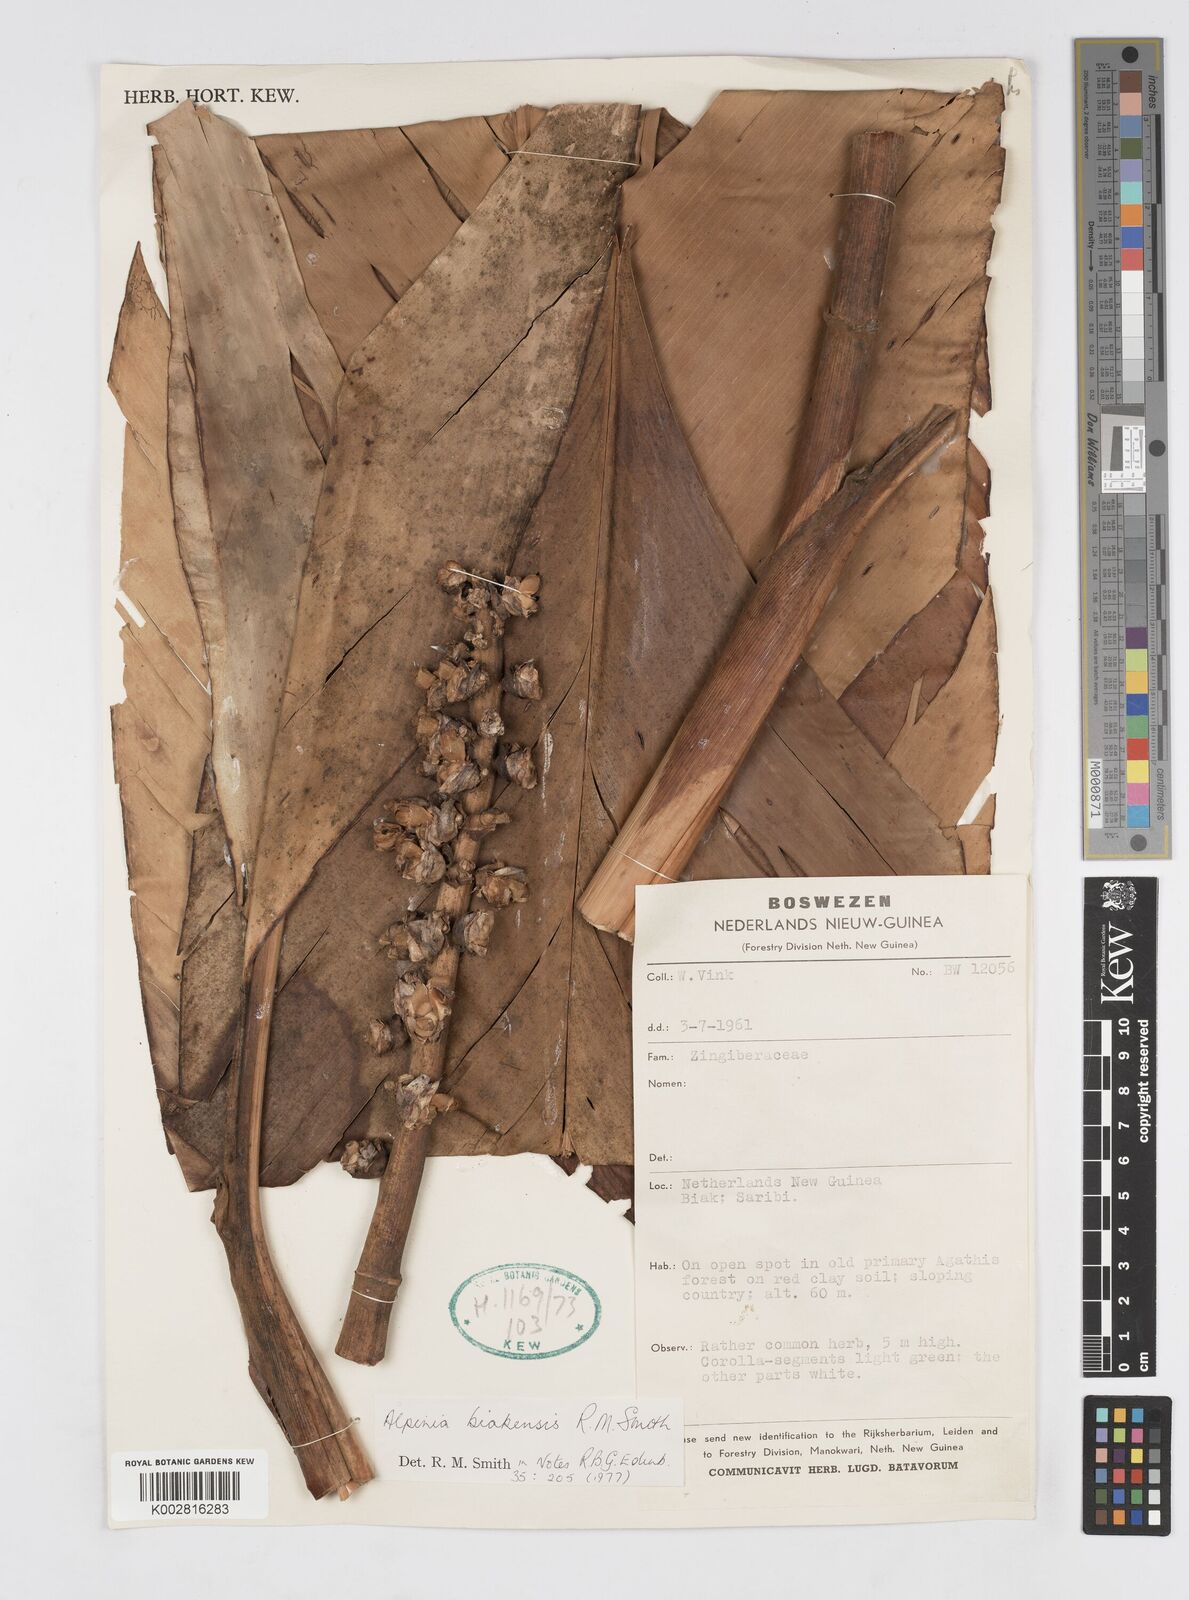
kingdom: Plantae
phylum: Tracheophyta
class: Liliopsida
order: Zingiberales
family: Zingiberaceae
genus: Alpinia
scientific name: Alpinia biakensis
